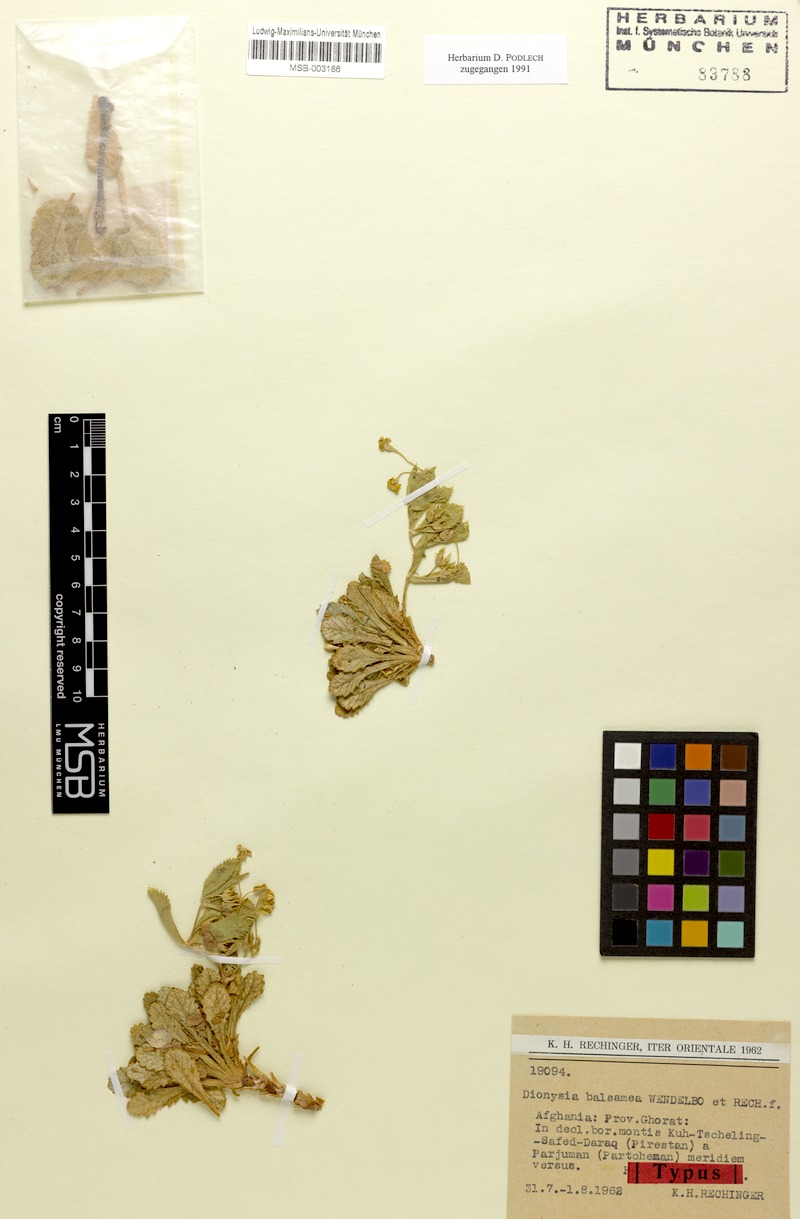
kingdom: Plantae
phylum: Tracheophyta
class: Magnoliopsida
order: Ericales
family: Primulaceae
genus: Dionysia
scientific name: Dionysia balsamea
